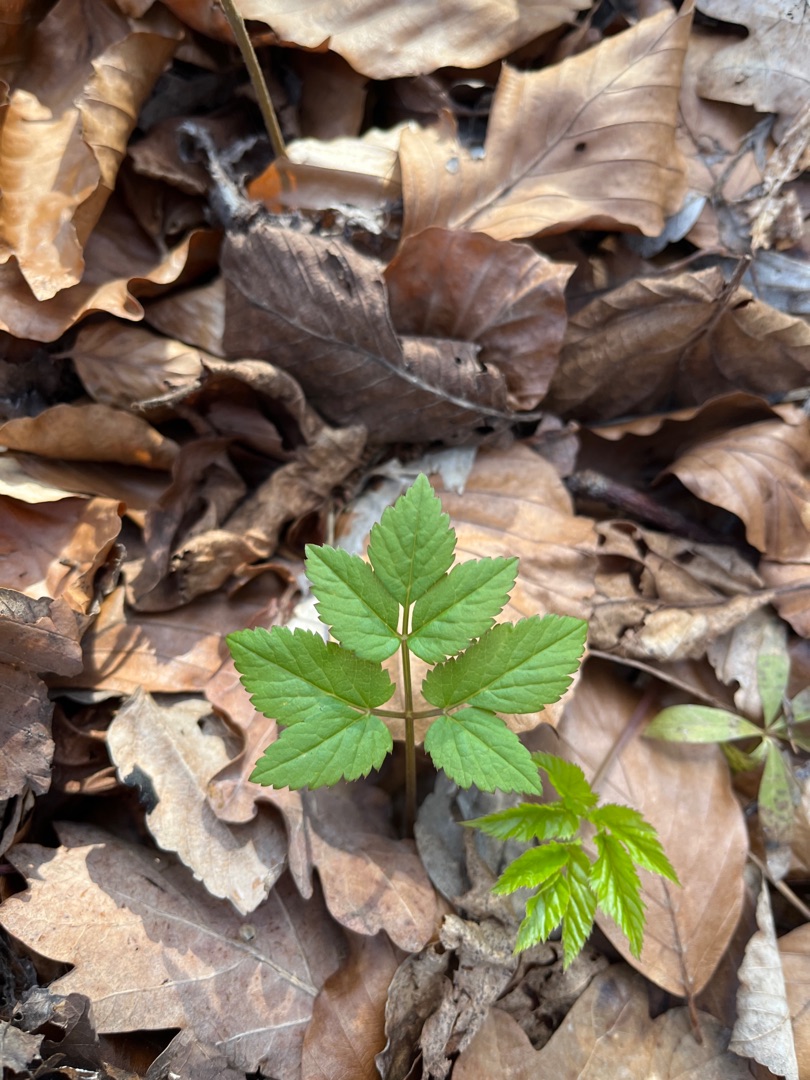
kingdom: Plantae
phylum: Tracheophyta
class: Magnoliopsida
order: Apiales
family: Apiaceae
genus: Aegopodium
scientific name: Aegopodium podagraria
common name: Skvalderkål
